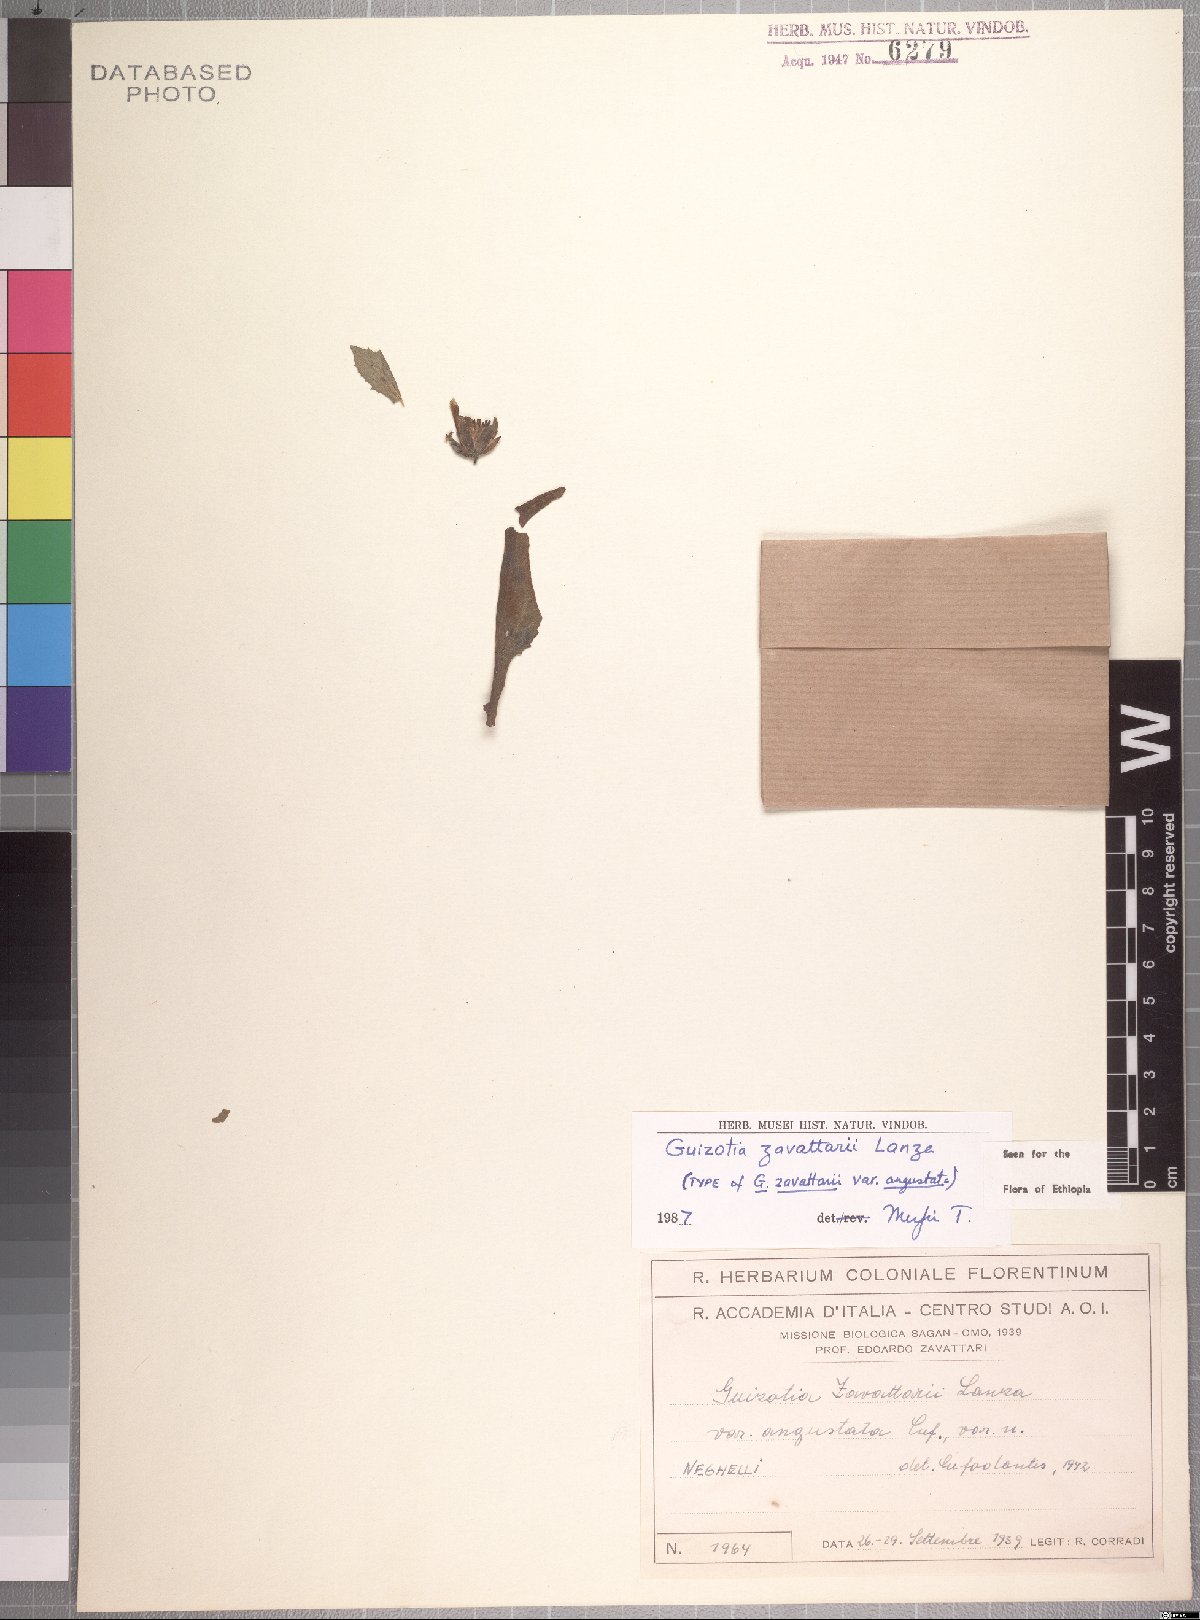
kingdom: Plantae
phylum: Tracheophyta
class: Magnoliopsida
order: Asterales
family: Asteraceae
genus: Guizotia
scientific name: Guizotia zavattarii
